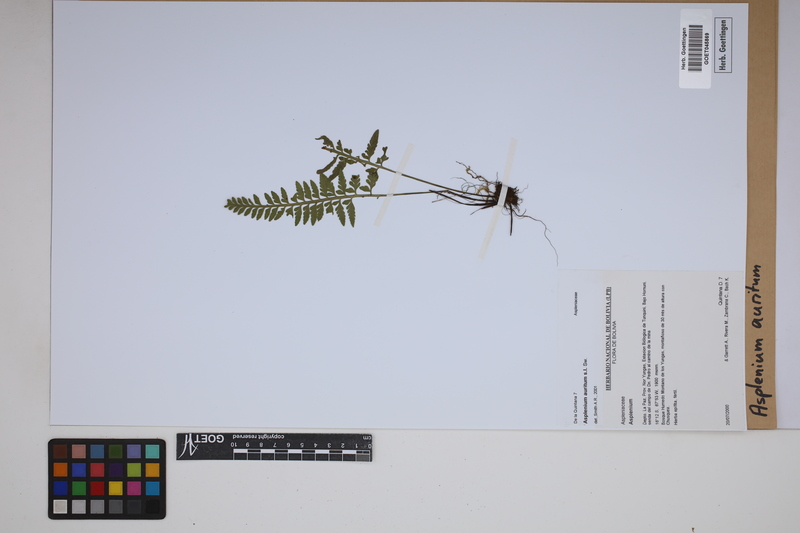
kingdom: Plantae
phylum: Tracheophyta
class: Polypodiopsida
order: Polypodiales
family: Aspleniaceae
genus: Asplenium
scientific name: Asplenium auritum
